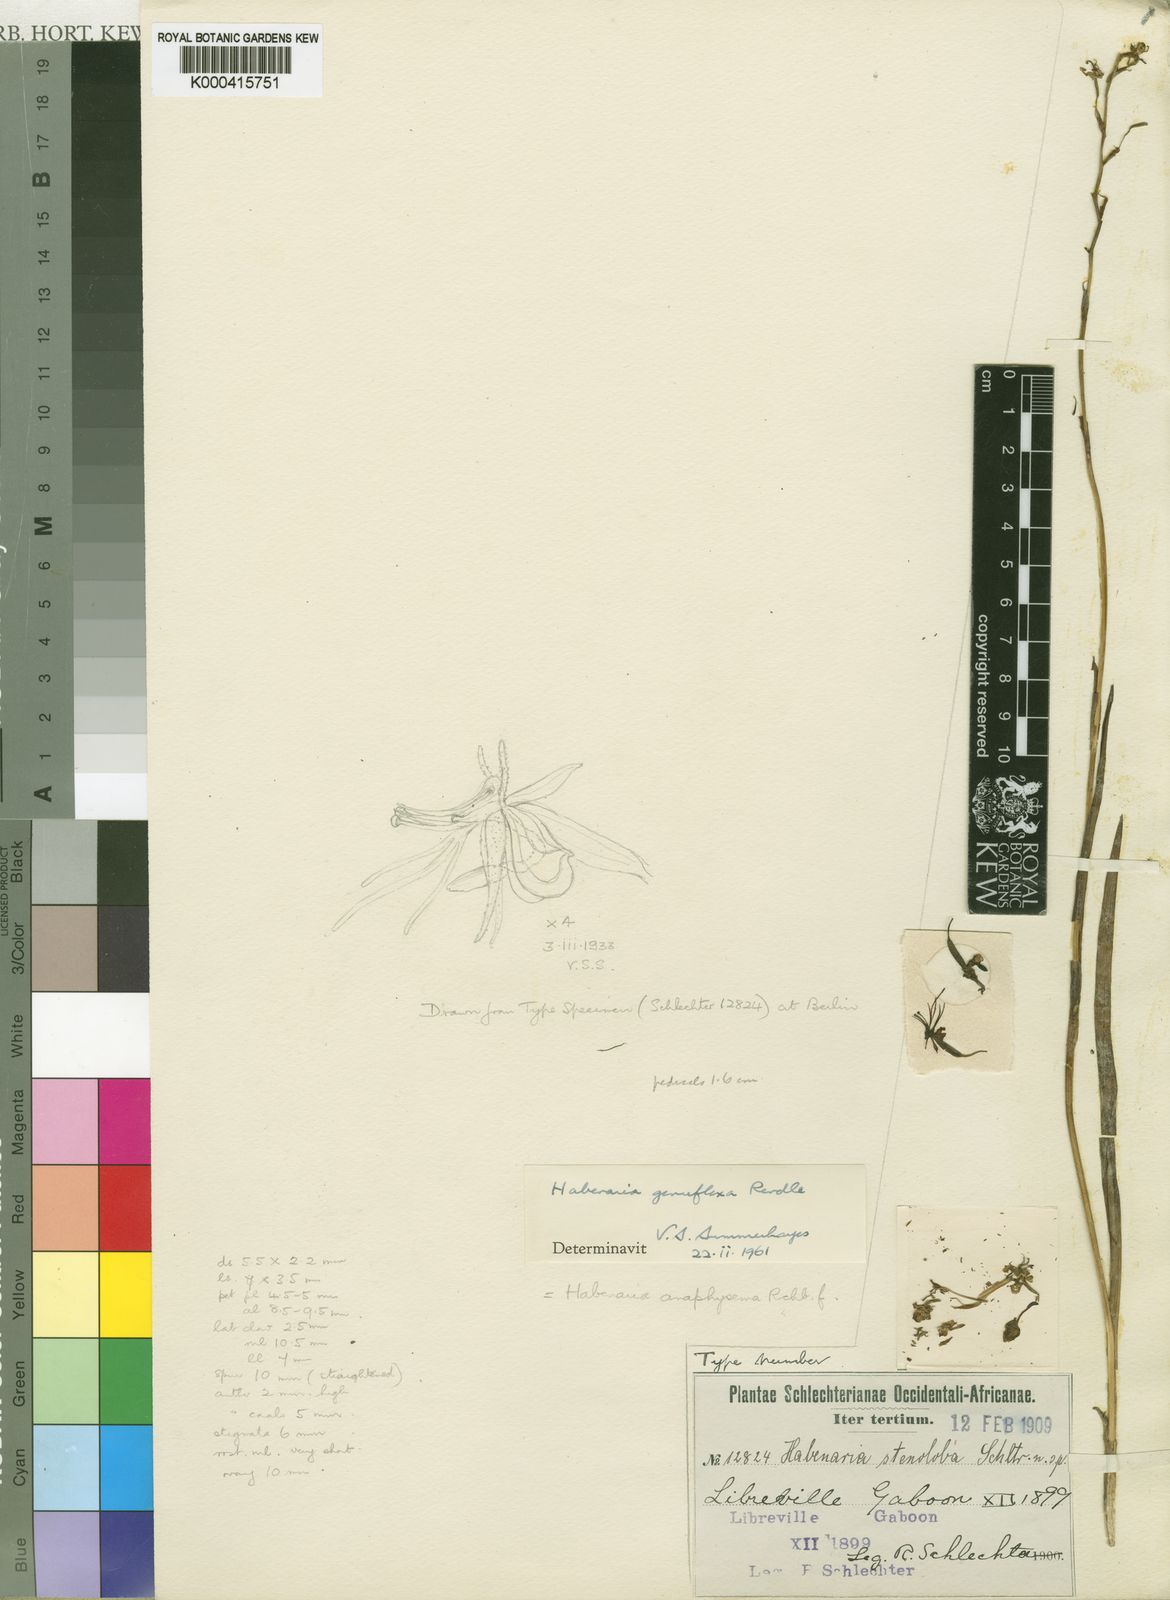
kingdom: Plantae
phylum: Tracheophyta
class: Liliopsida
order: Asparagales
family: Orchidaceae
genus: Habenaria
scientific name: Habenaria genuflexa
